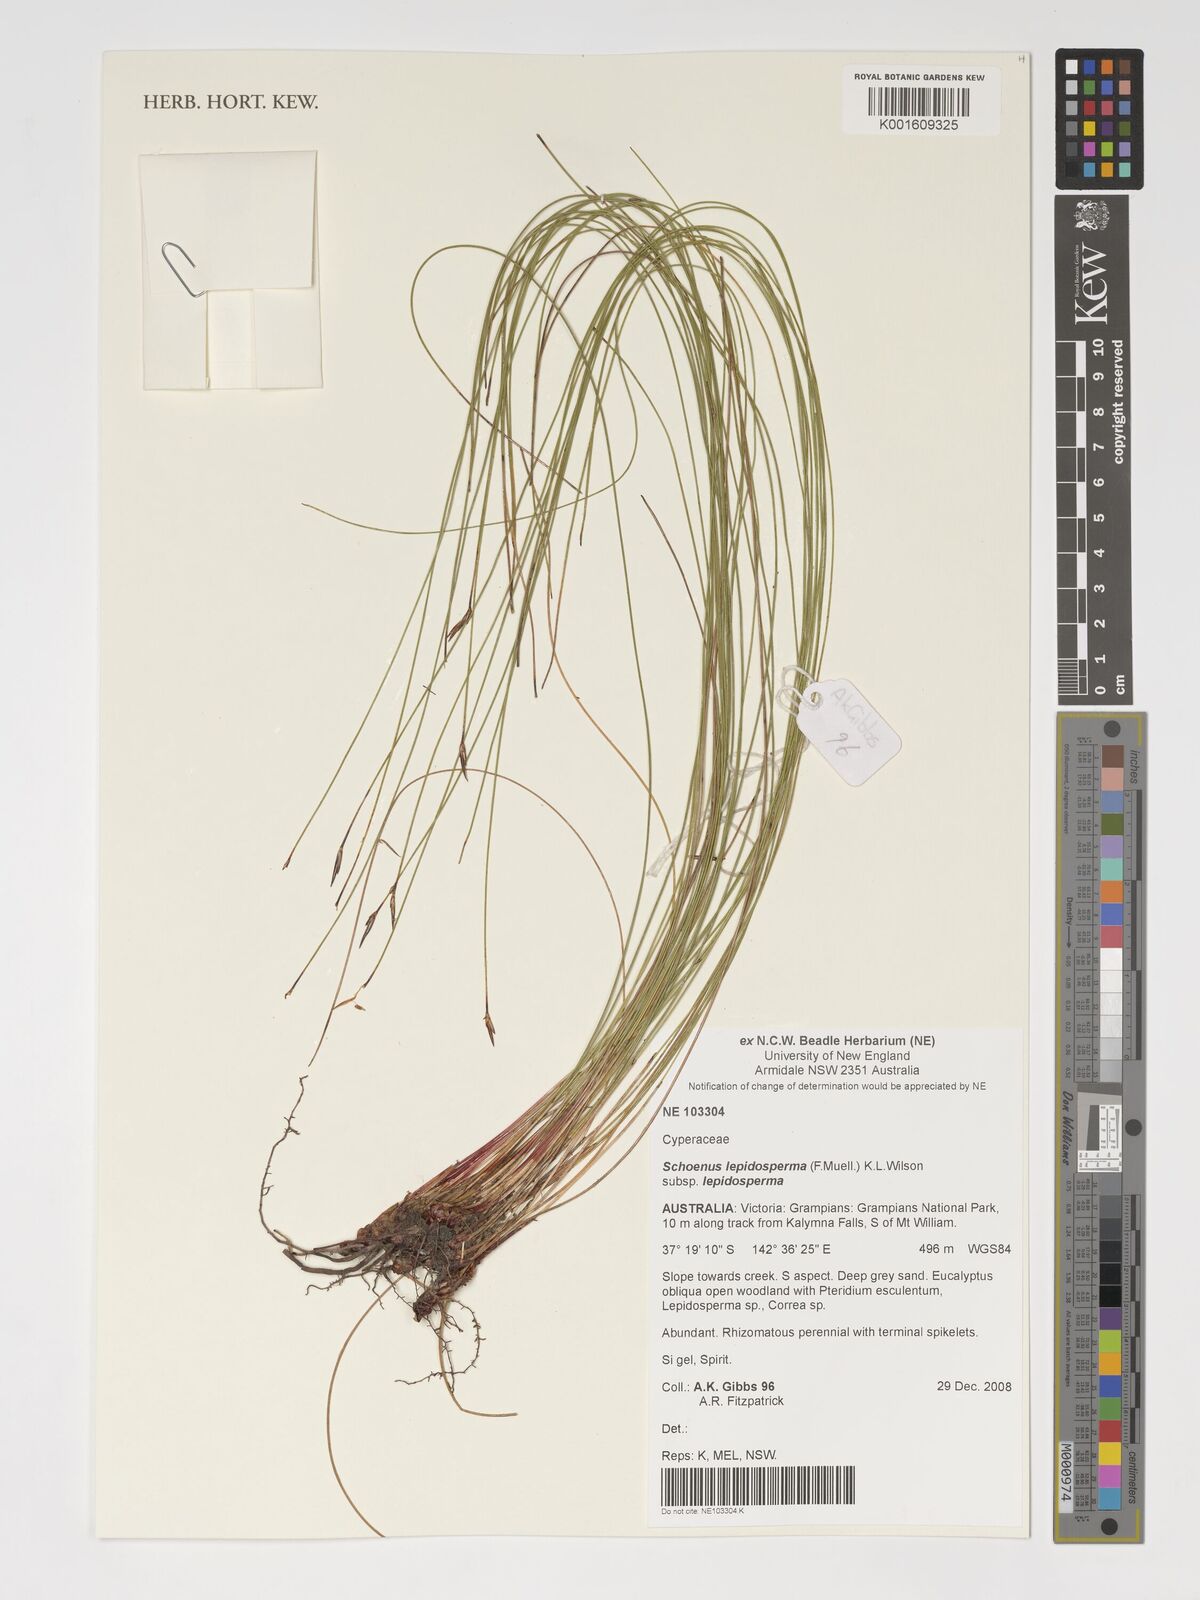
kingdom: Plantae
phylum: Tracheophyta
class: Liliopsida
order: Poales
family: Cyperaceae
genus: Schoenus
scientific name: Schoenus lepidosperma
